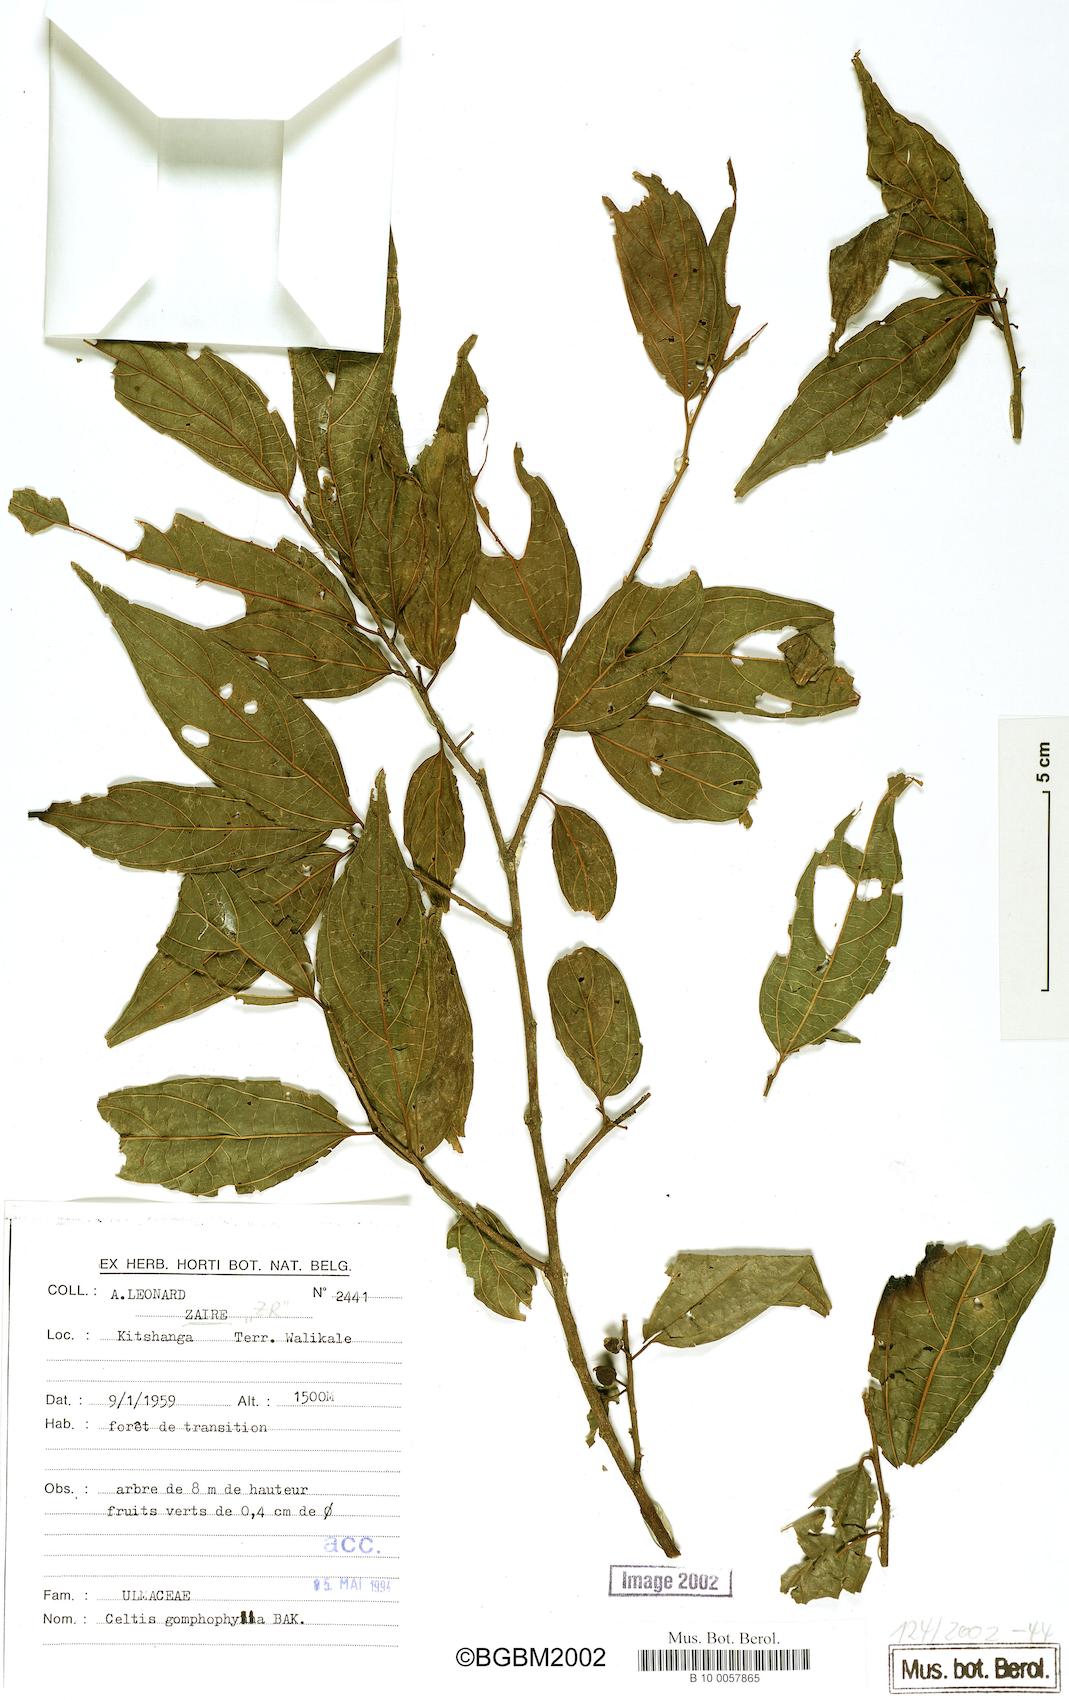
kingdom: Plantae
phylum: Tracheophyta
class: Magnoliopsida
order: Rosales
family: Cannabaceae
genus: Celtis
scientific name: Celtis gomphophylla
